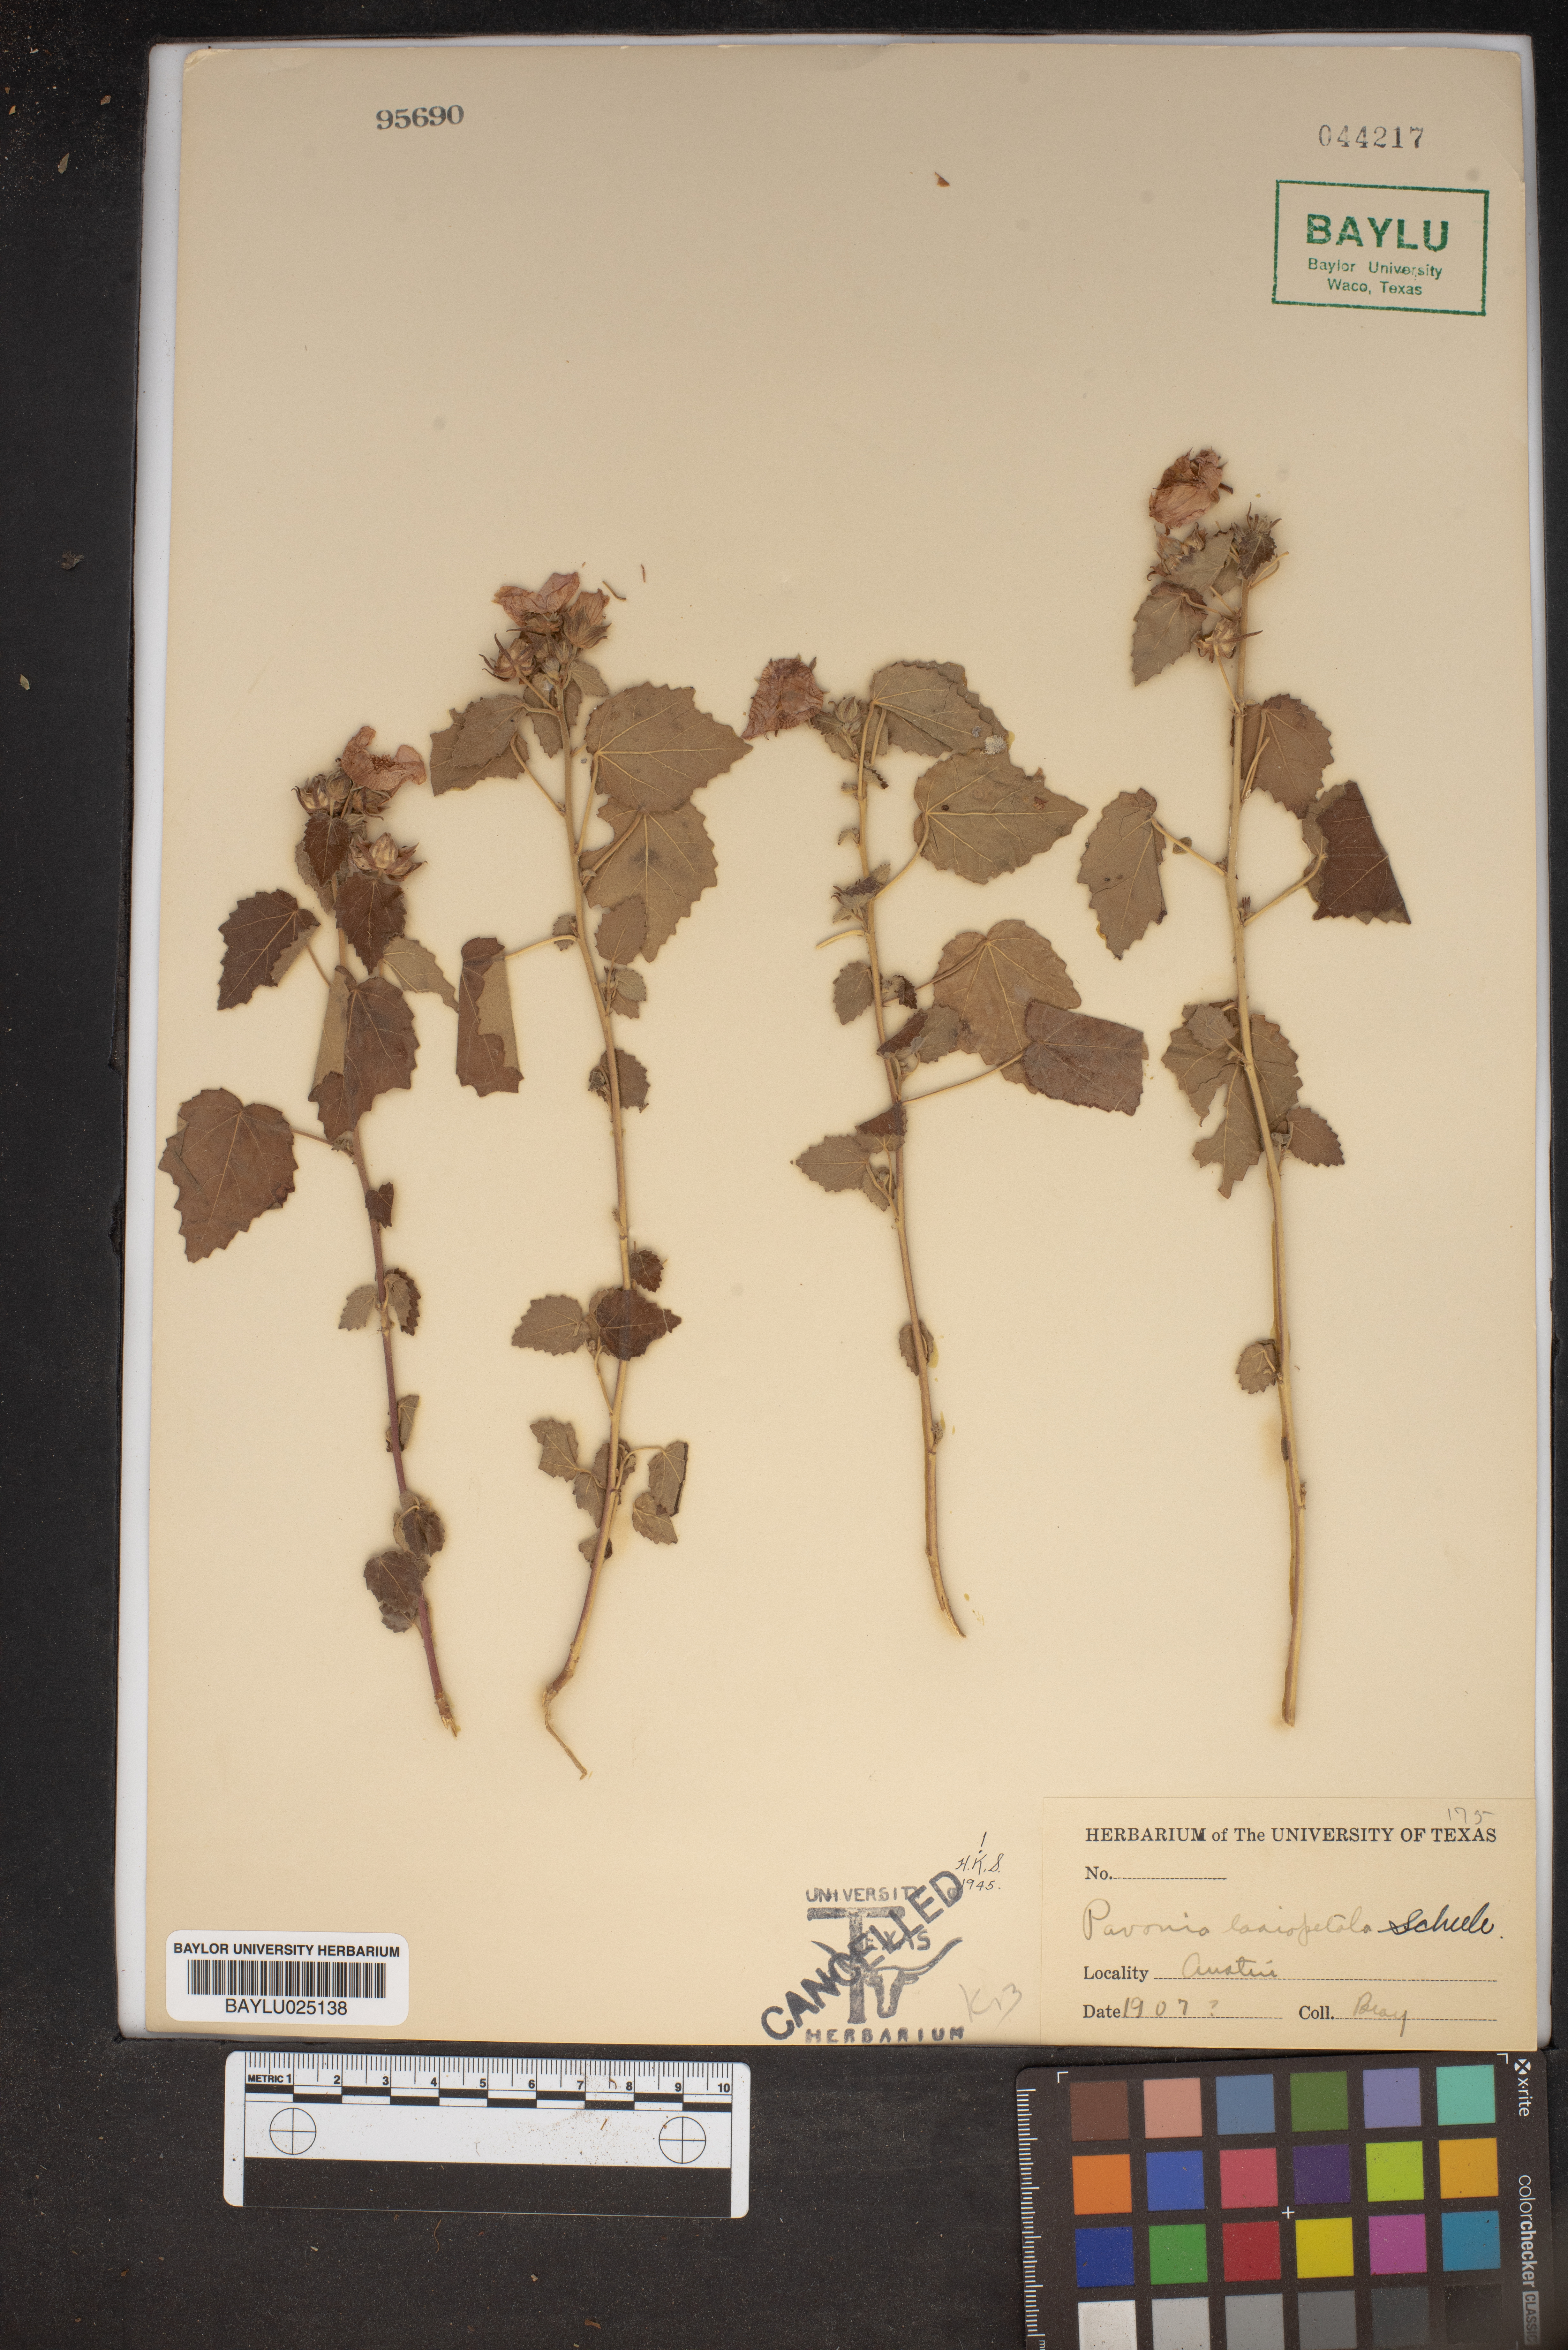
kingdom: Plantae
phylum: Tracheophyta
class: Magnoliopsida
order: Malvales
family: Malvaceae
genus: Pavonia
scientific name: Pavonia lasiopetala
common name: Texas swamp-mallow
